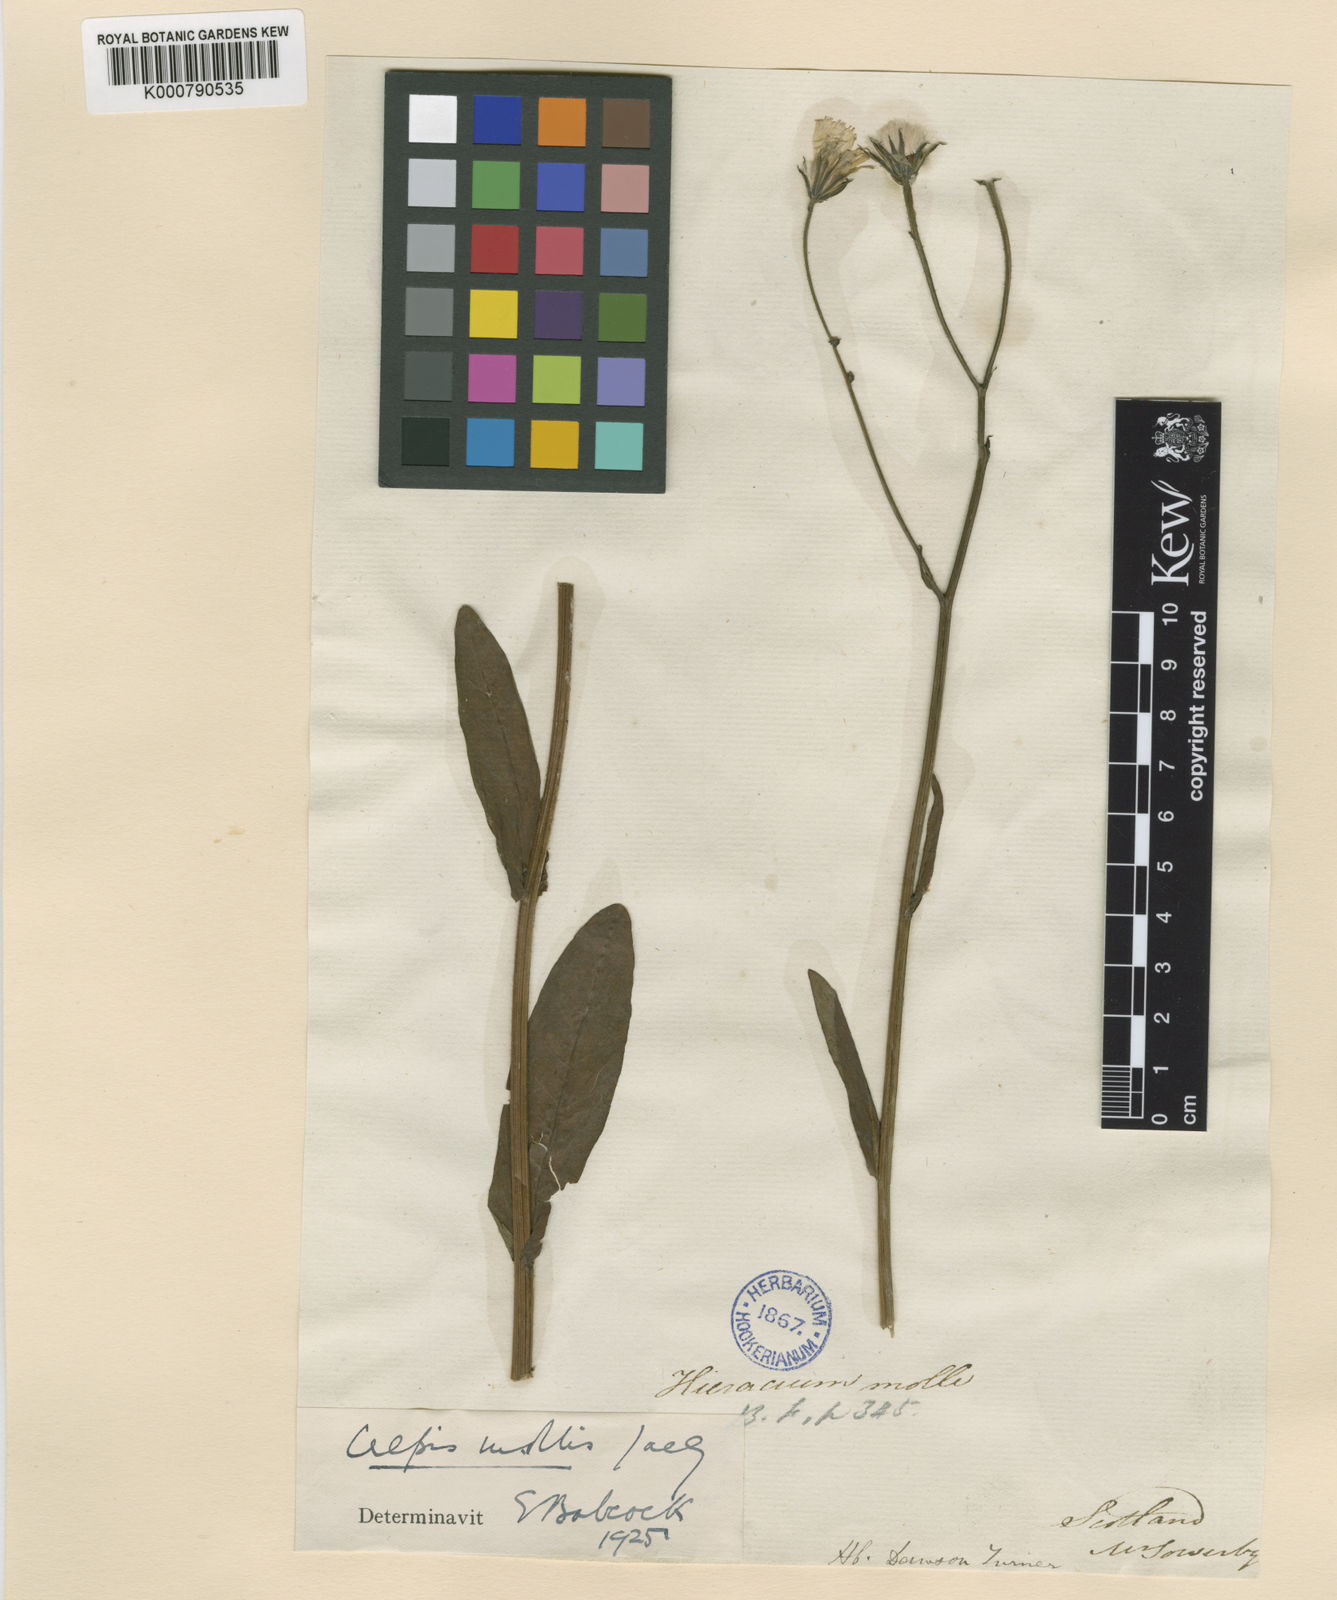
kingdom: Plantae
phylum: Tracheophyta
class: Magnoliopsida
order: Asterales
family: Asteraceae
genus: Crepis
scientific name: Crepis mollis
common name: Northern hawk's-beard
